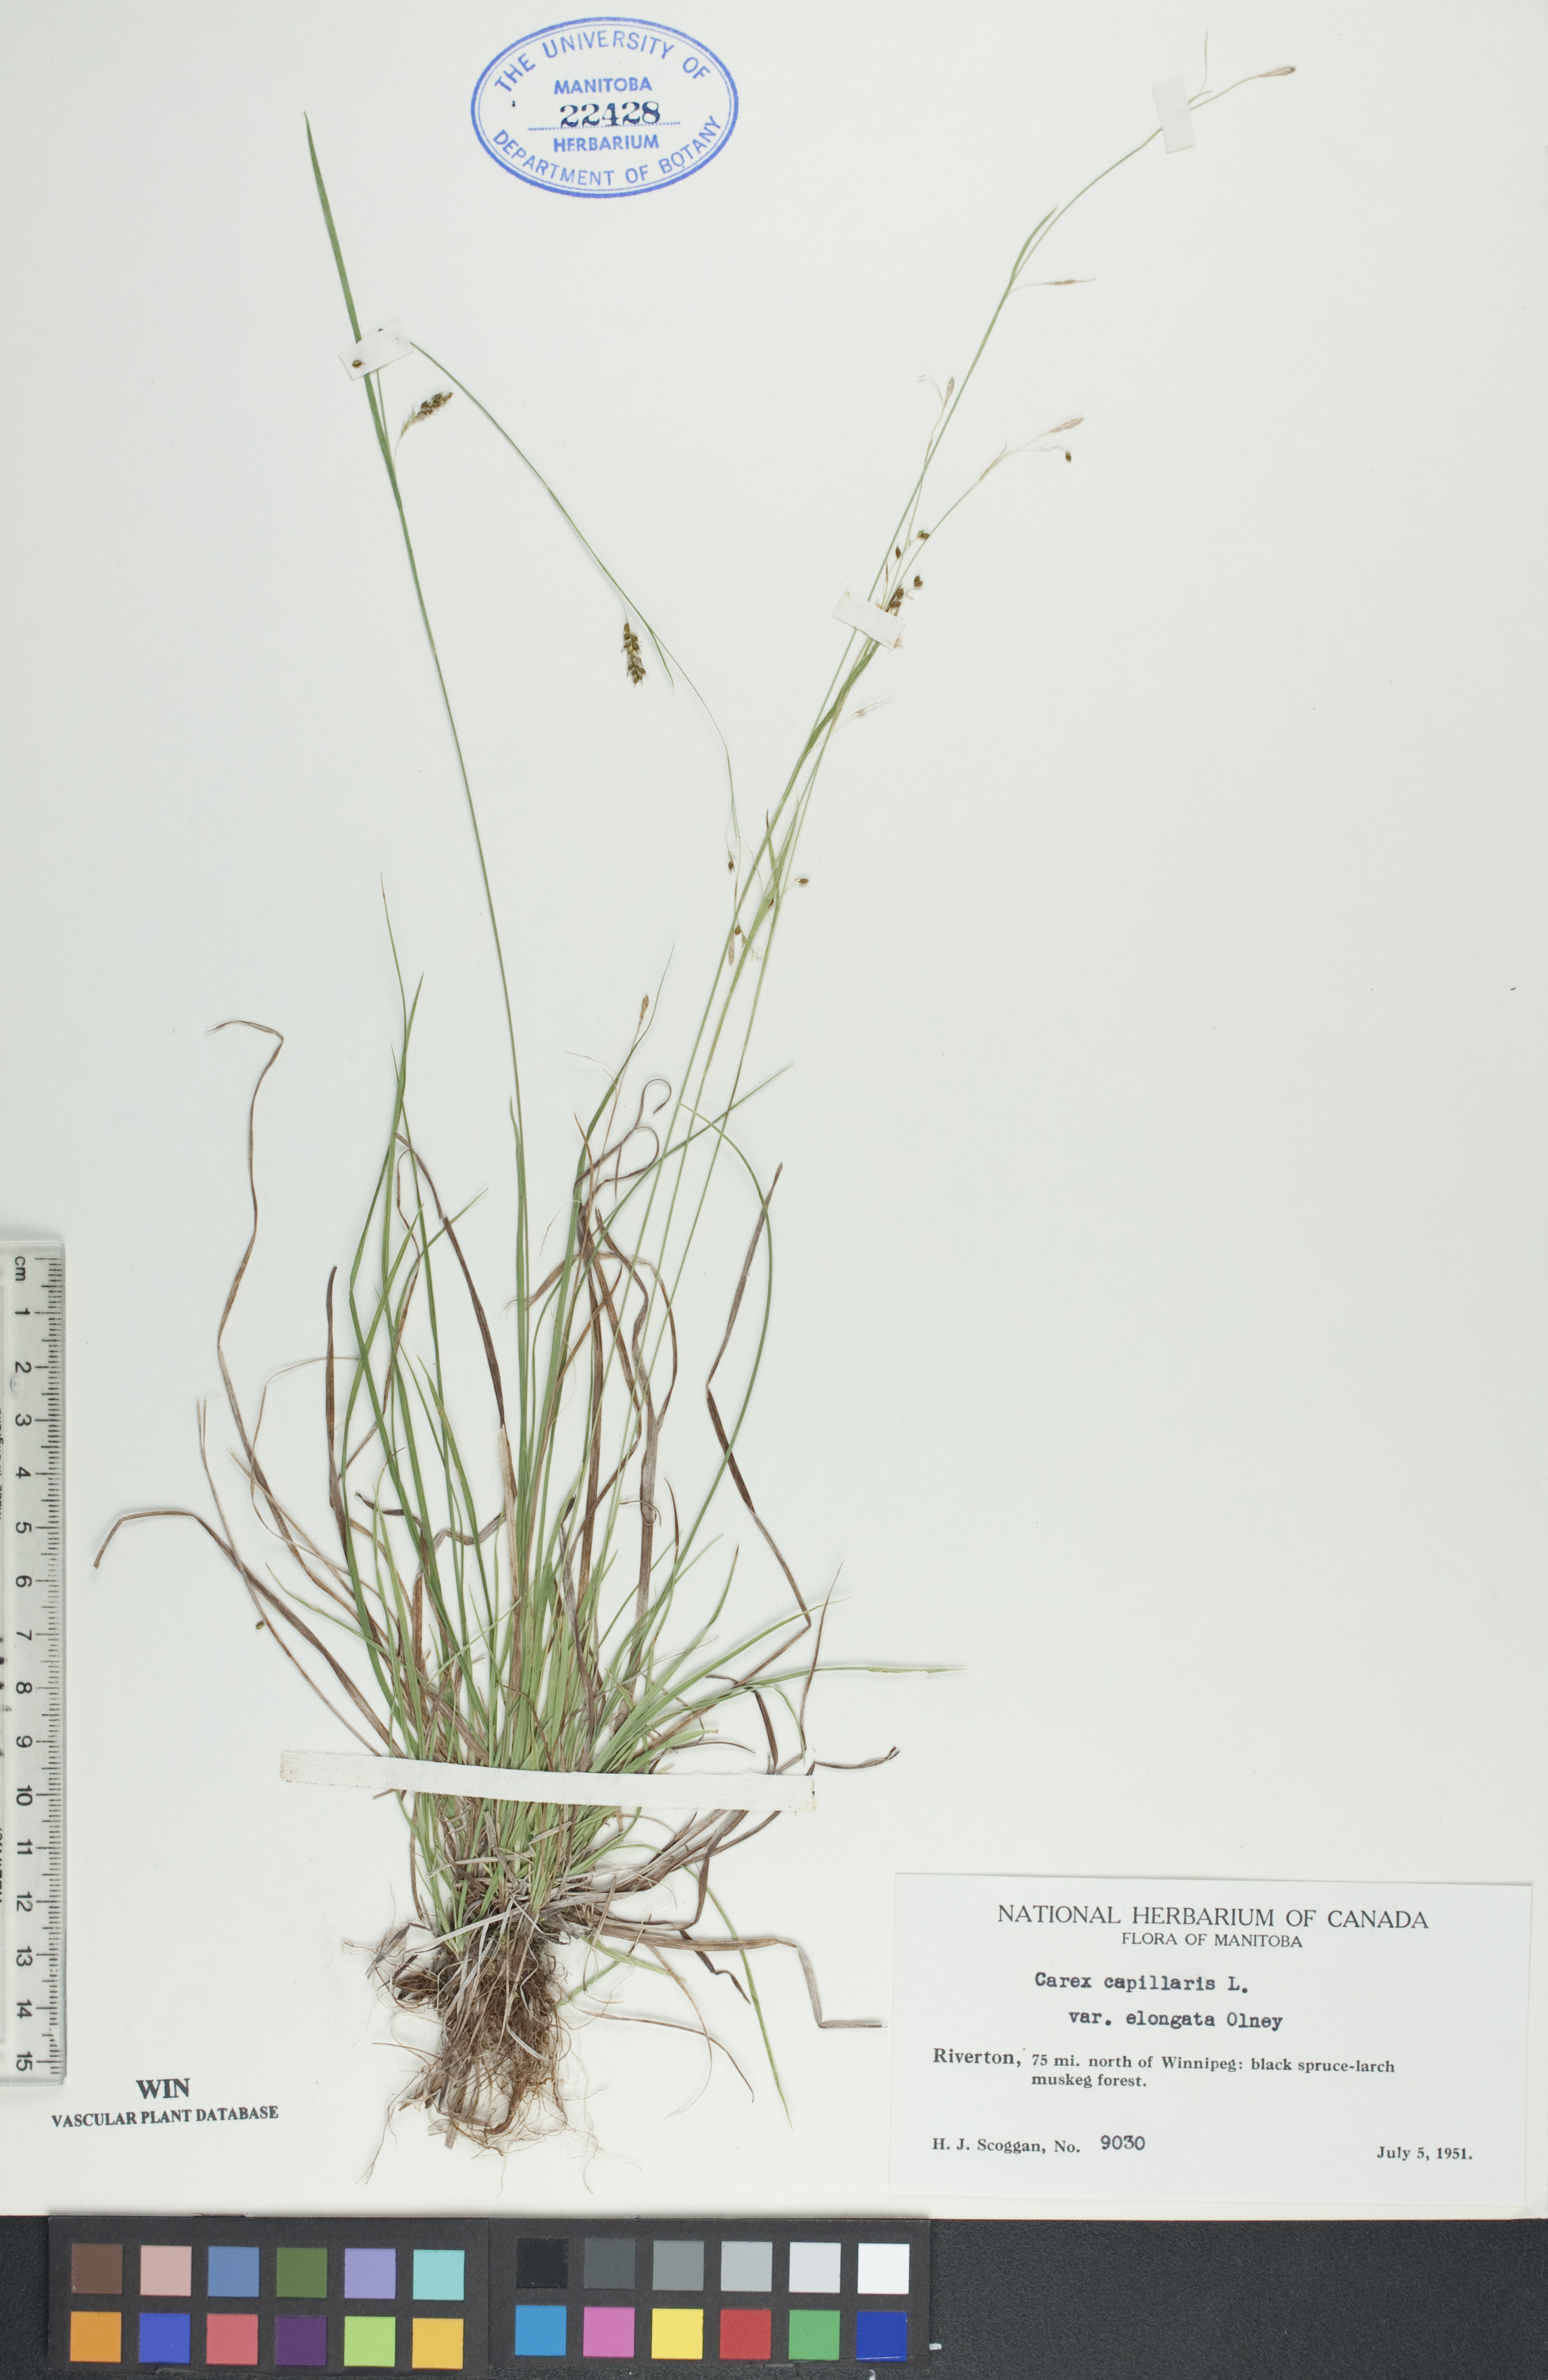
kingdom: Plantae
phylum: Tracheophyta
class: Liliopsida
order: Poales
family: Cyperaceae
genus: Carex
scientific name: Carex capillaris
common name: Hair sedge
